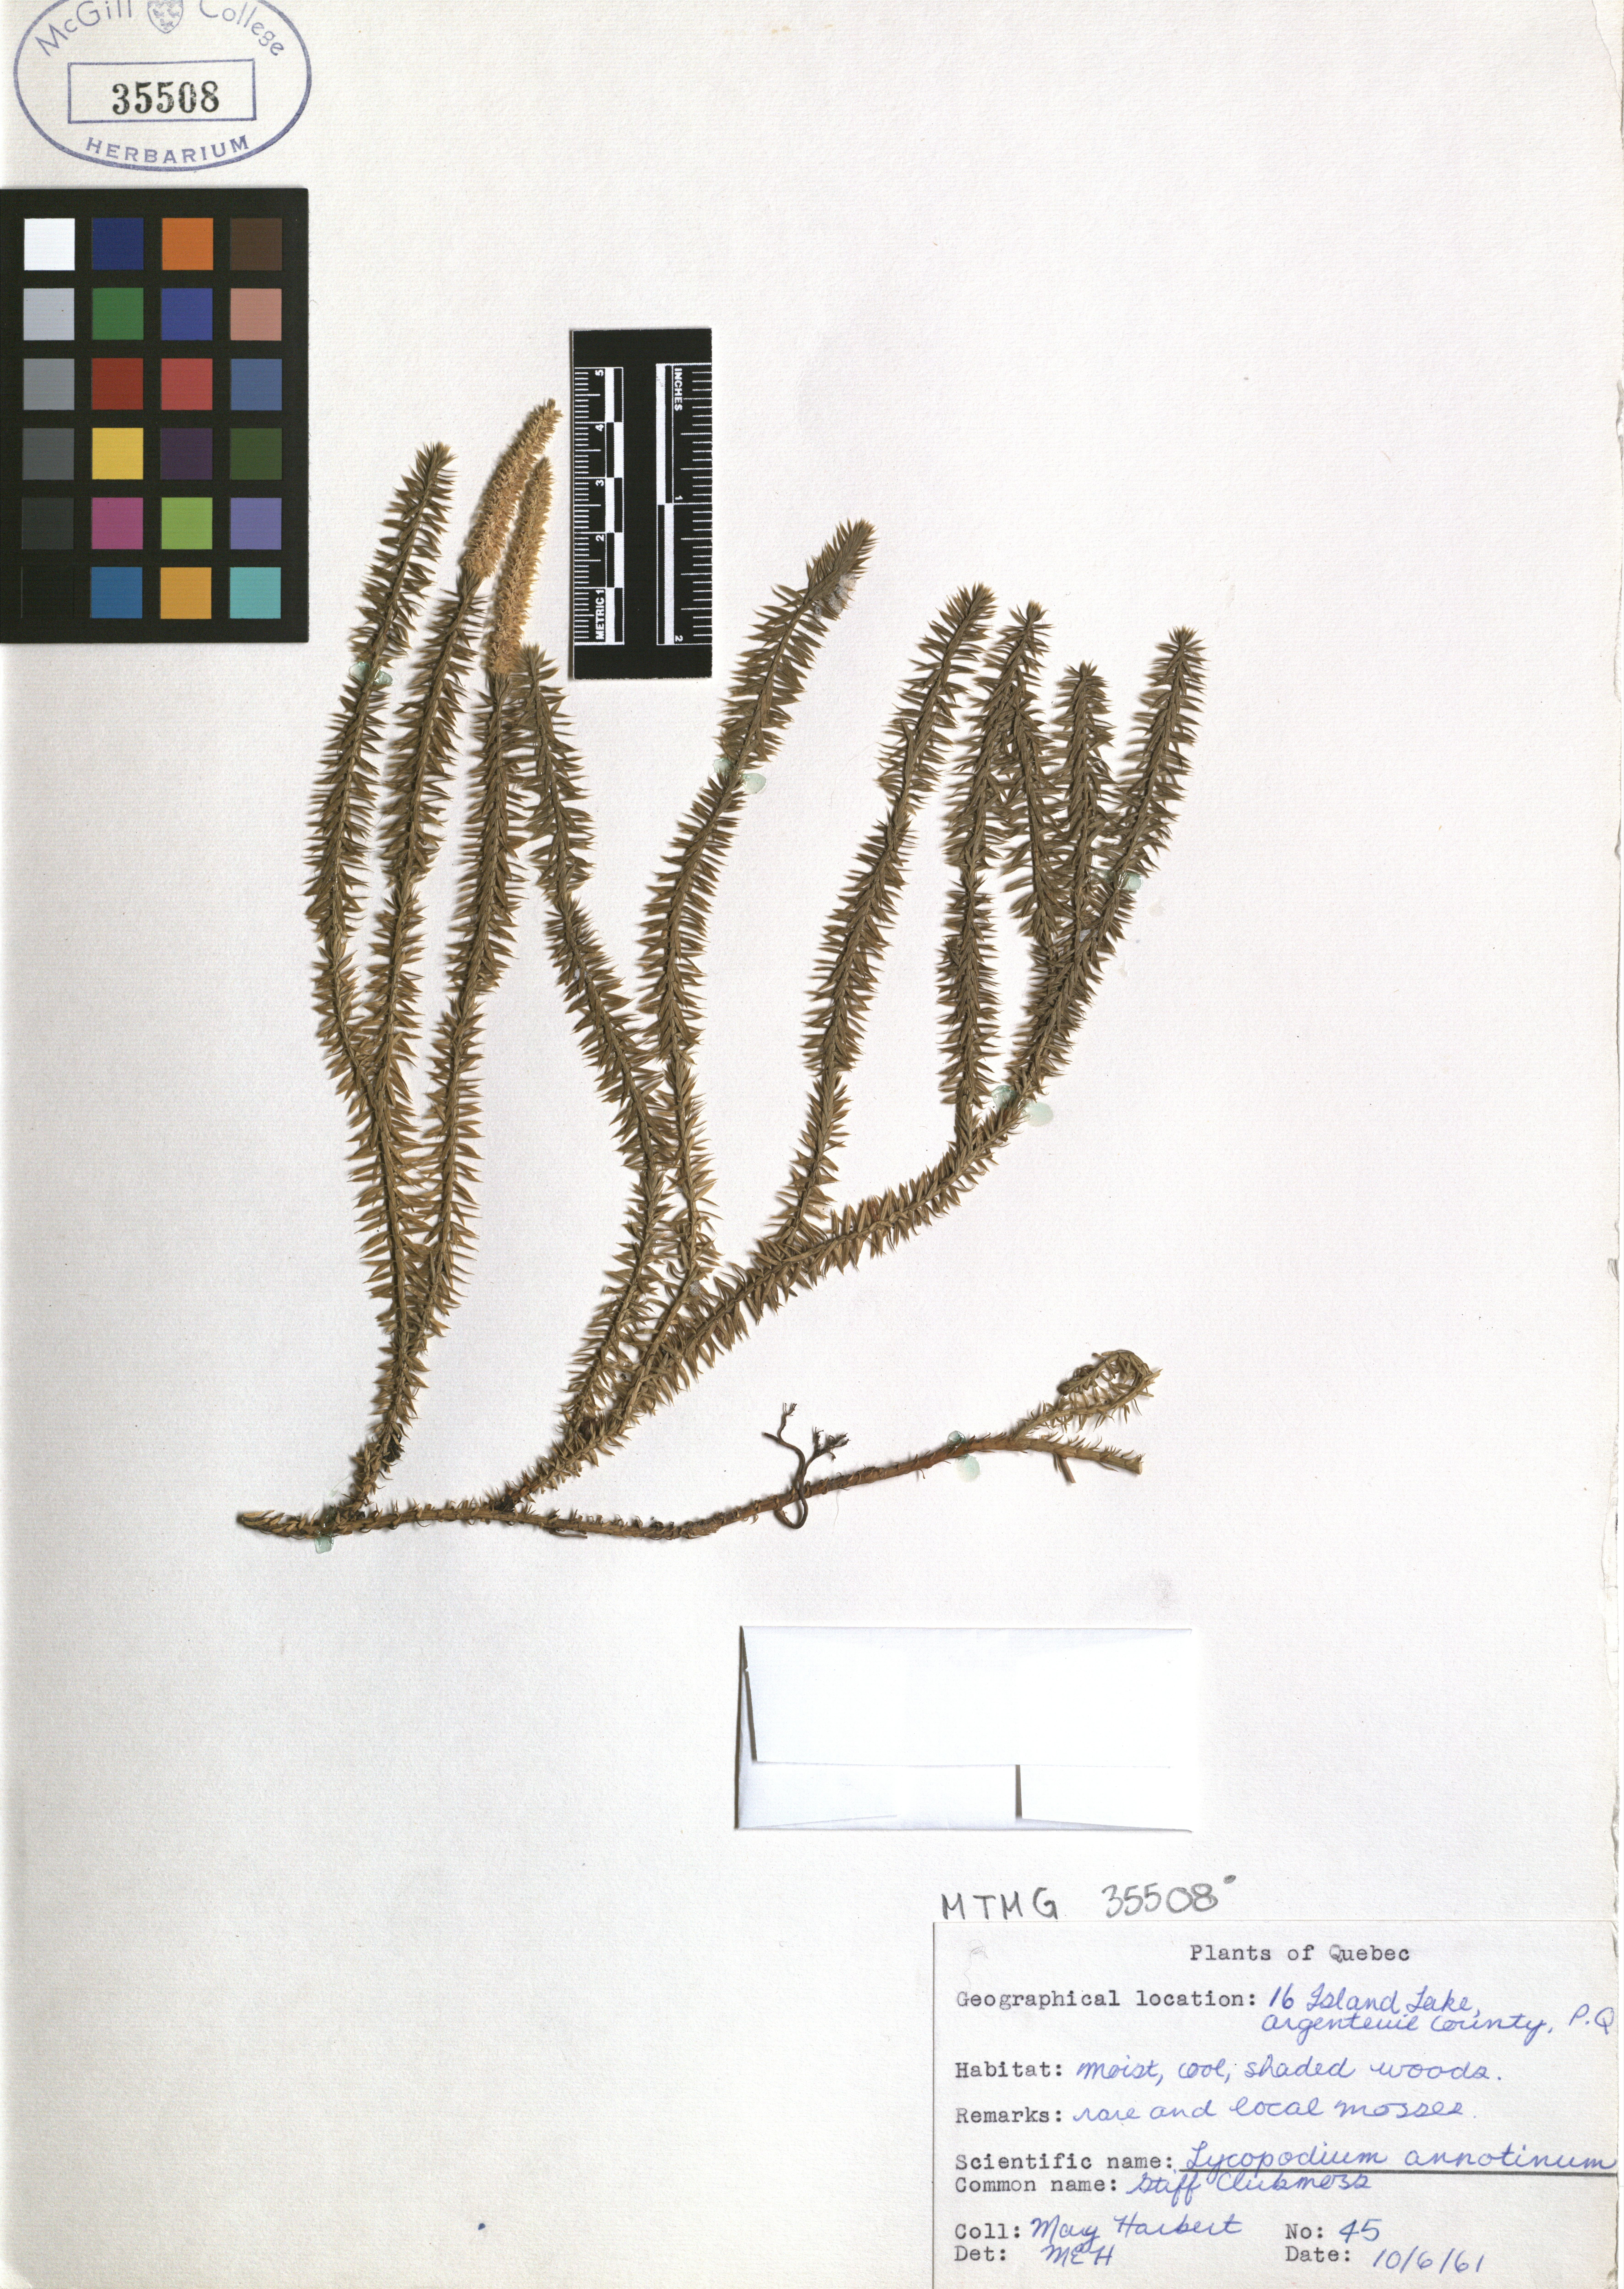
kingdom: Plantae
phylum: Tracheophyta
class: Lycopodiopsida
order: Lycopodiales
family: Lycopodiaceae
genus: Spinulum
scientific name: Spinulum annotinum
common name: Interrupted club-moss
